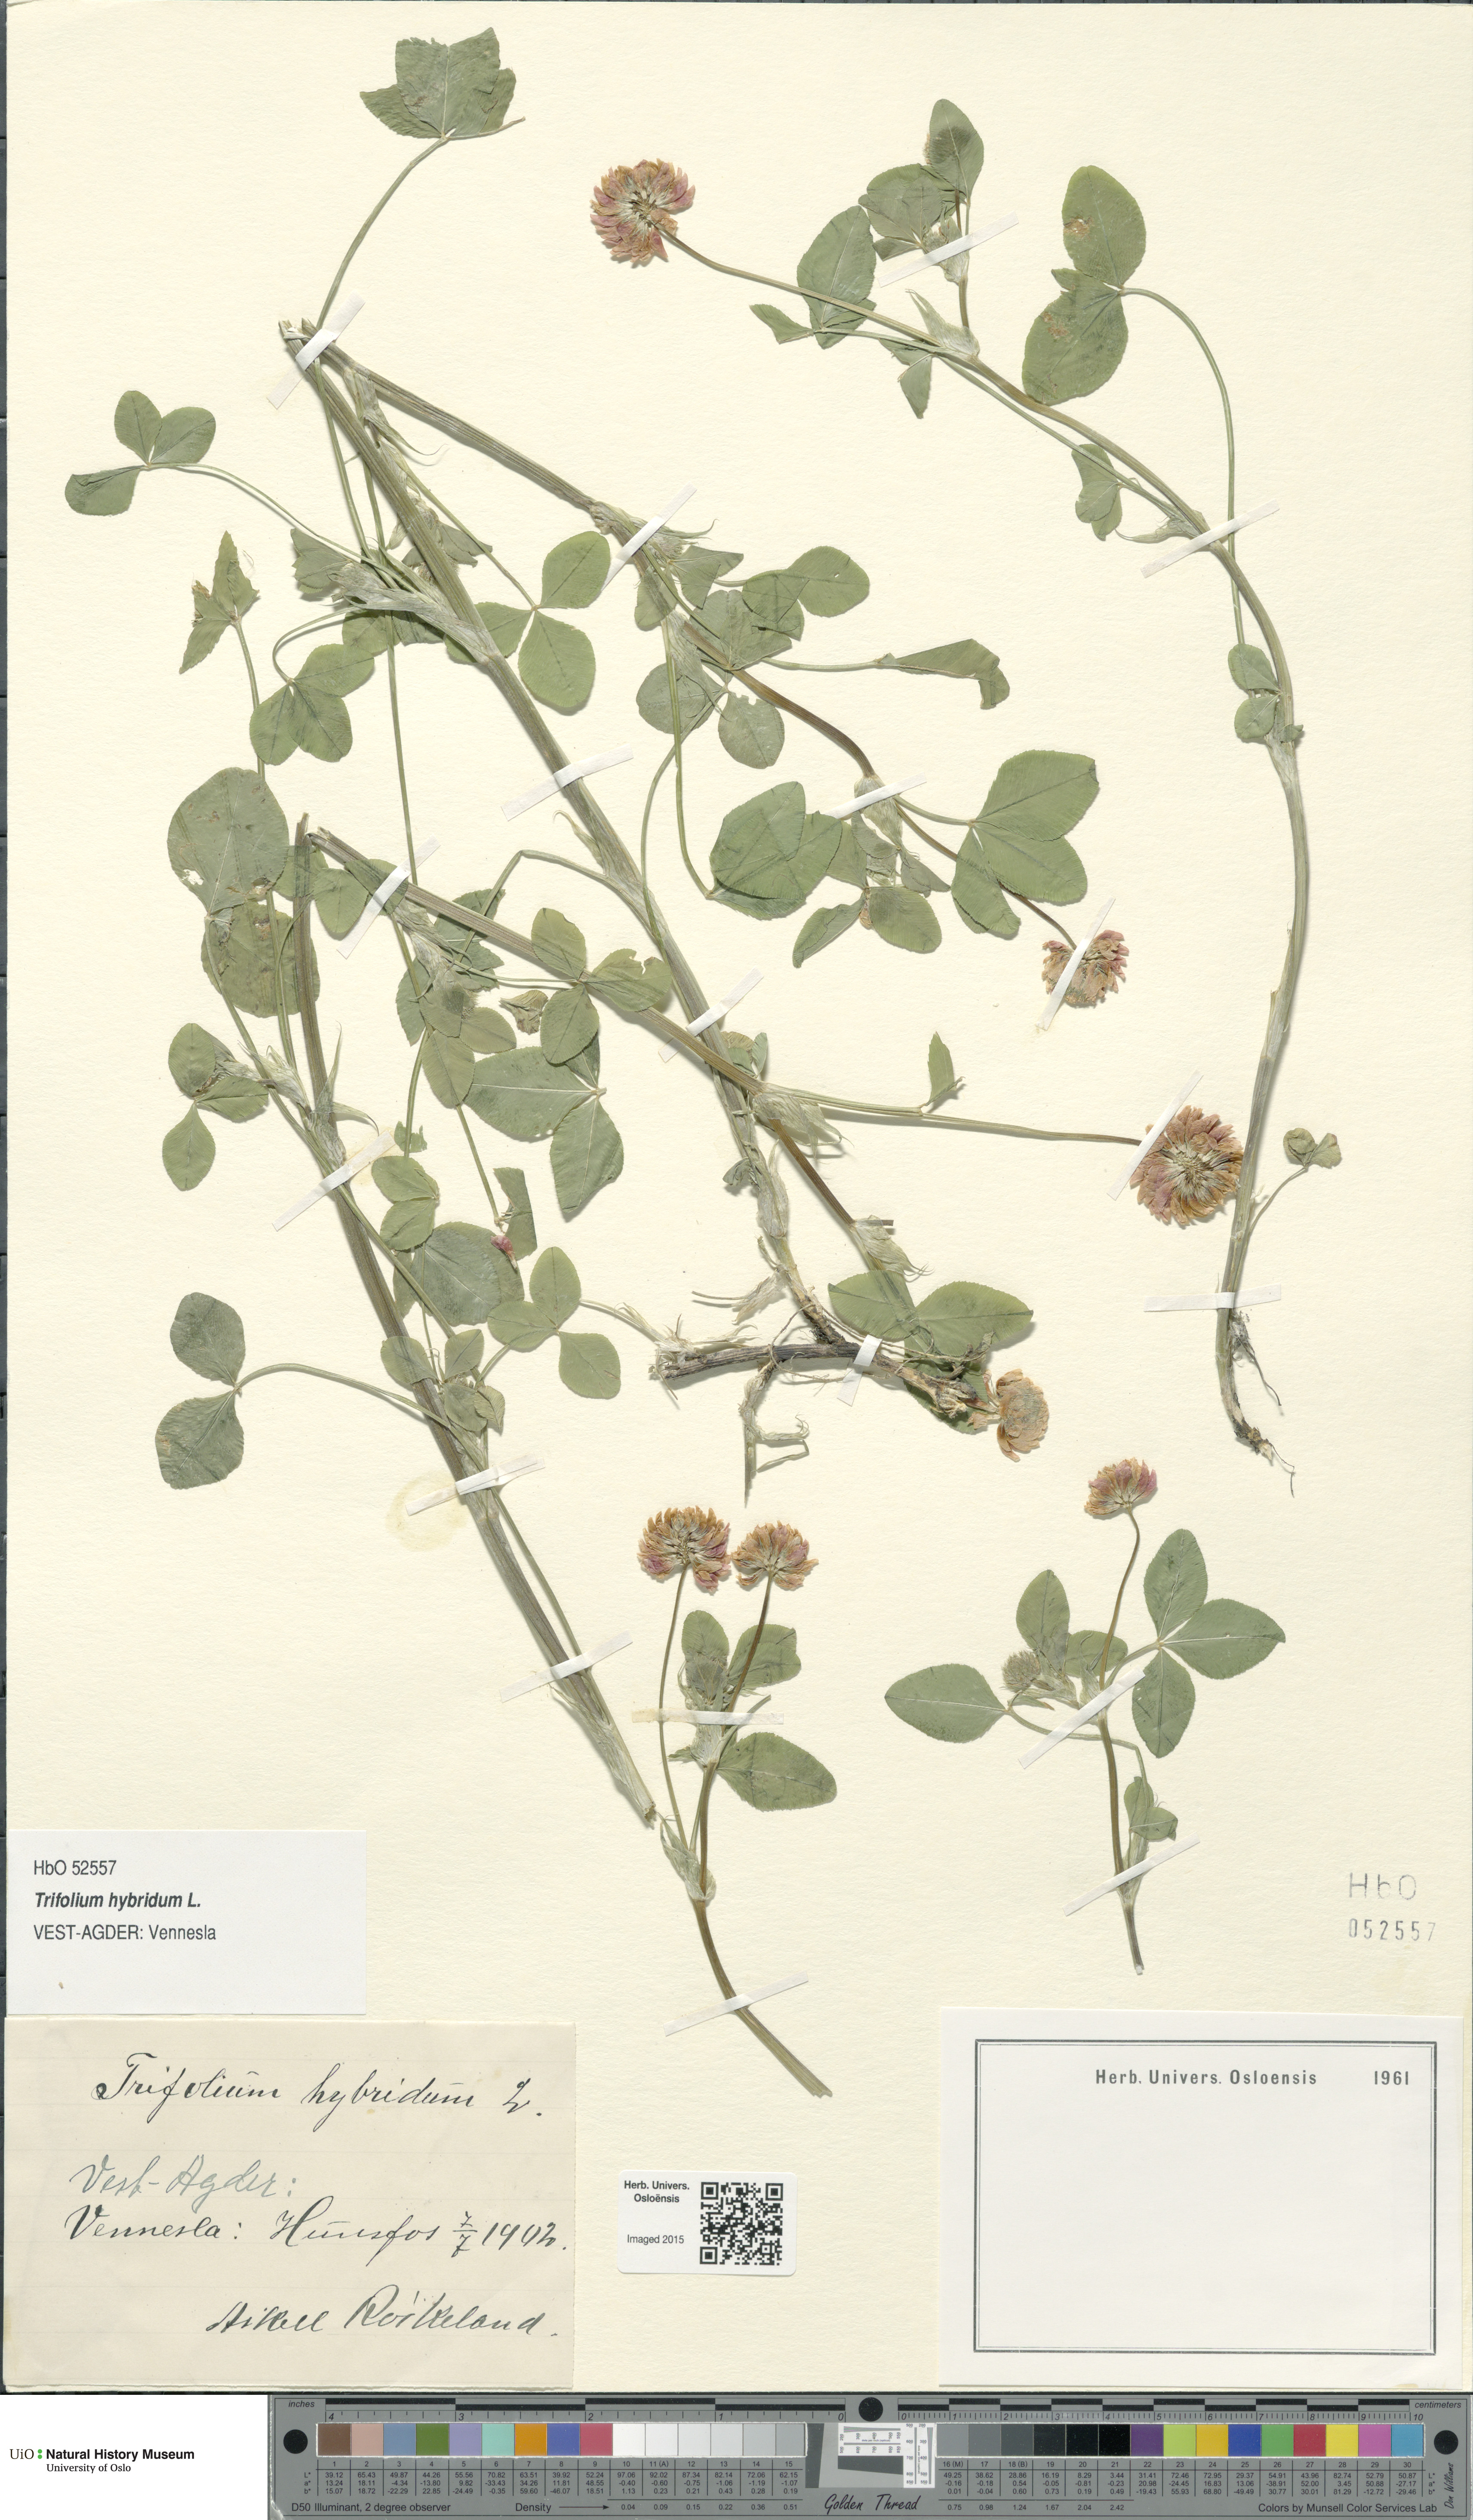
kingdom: Plantae
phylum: Tracheophyta
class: Magnoliopsida
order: Fabales
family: Fabaceae
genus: Trifolium
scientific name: Trifolium hybridum
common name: Alsike clover
